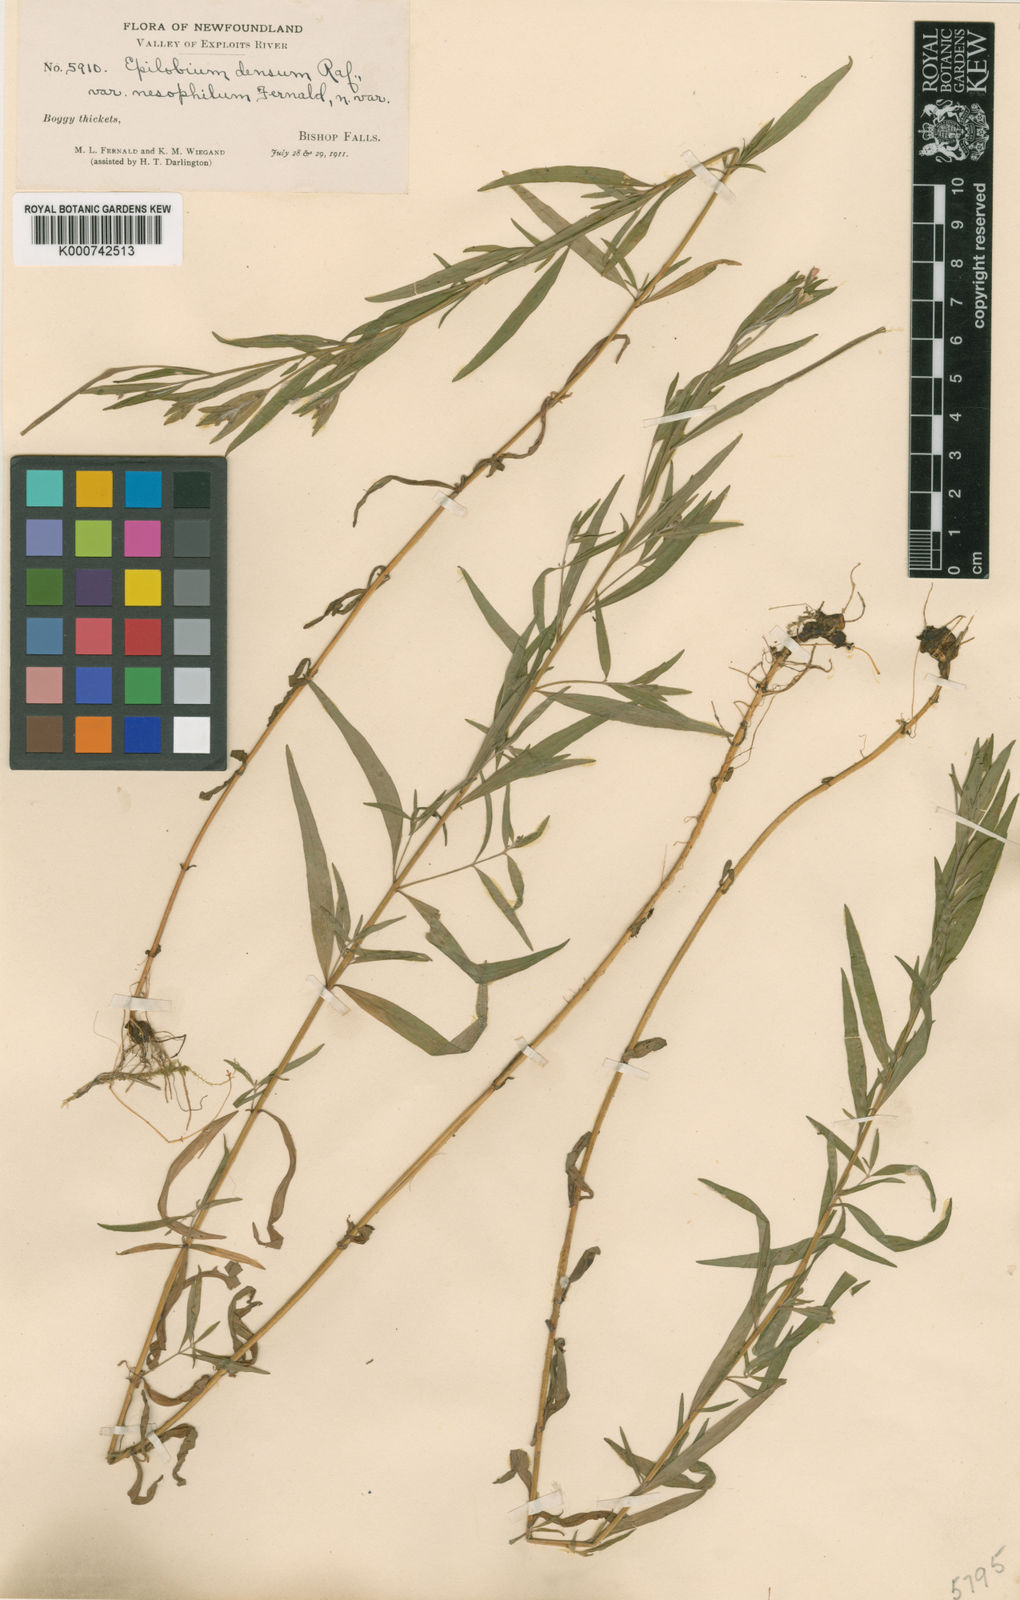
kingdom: Plantae
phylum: Tracheophyta
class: Magnoliopsida
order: Myrtales
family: Onagraceae
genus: Epilobium
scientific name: Epilobium leptophyllum
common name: Bog willowherb
